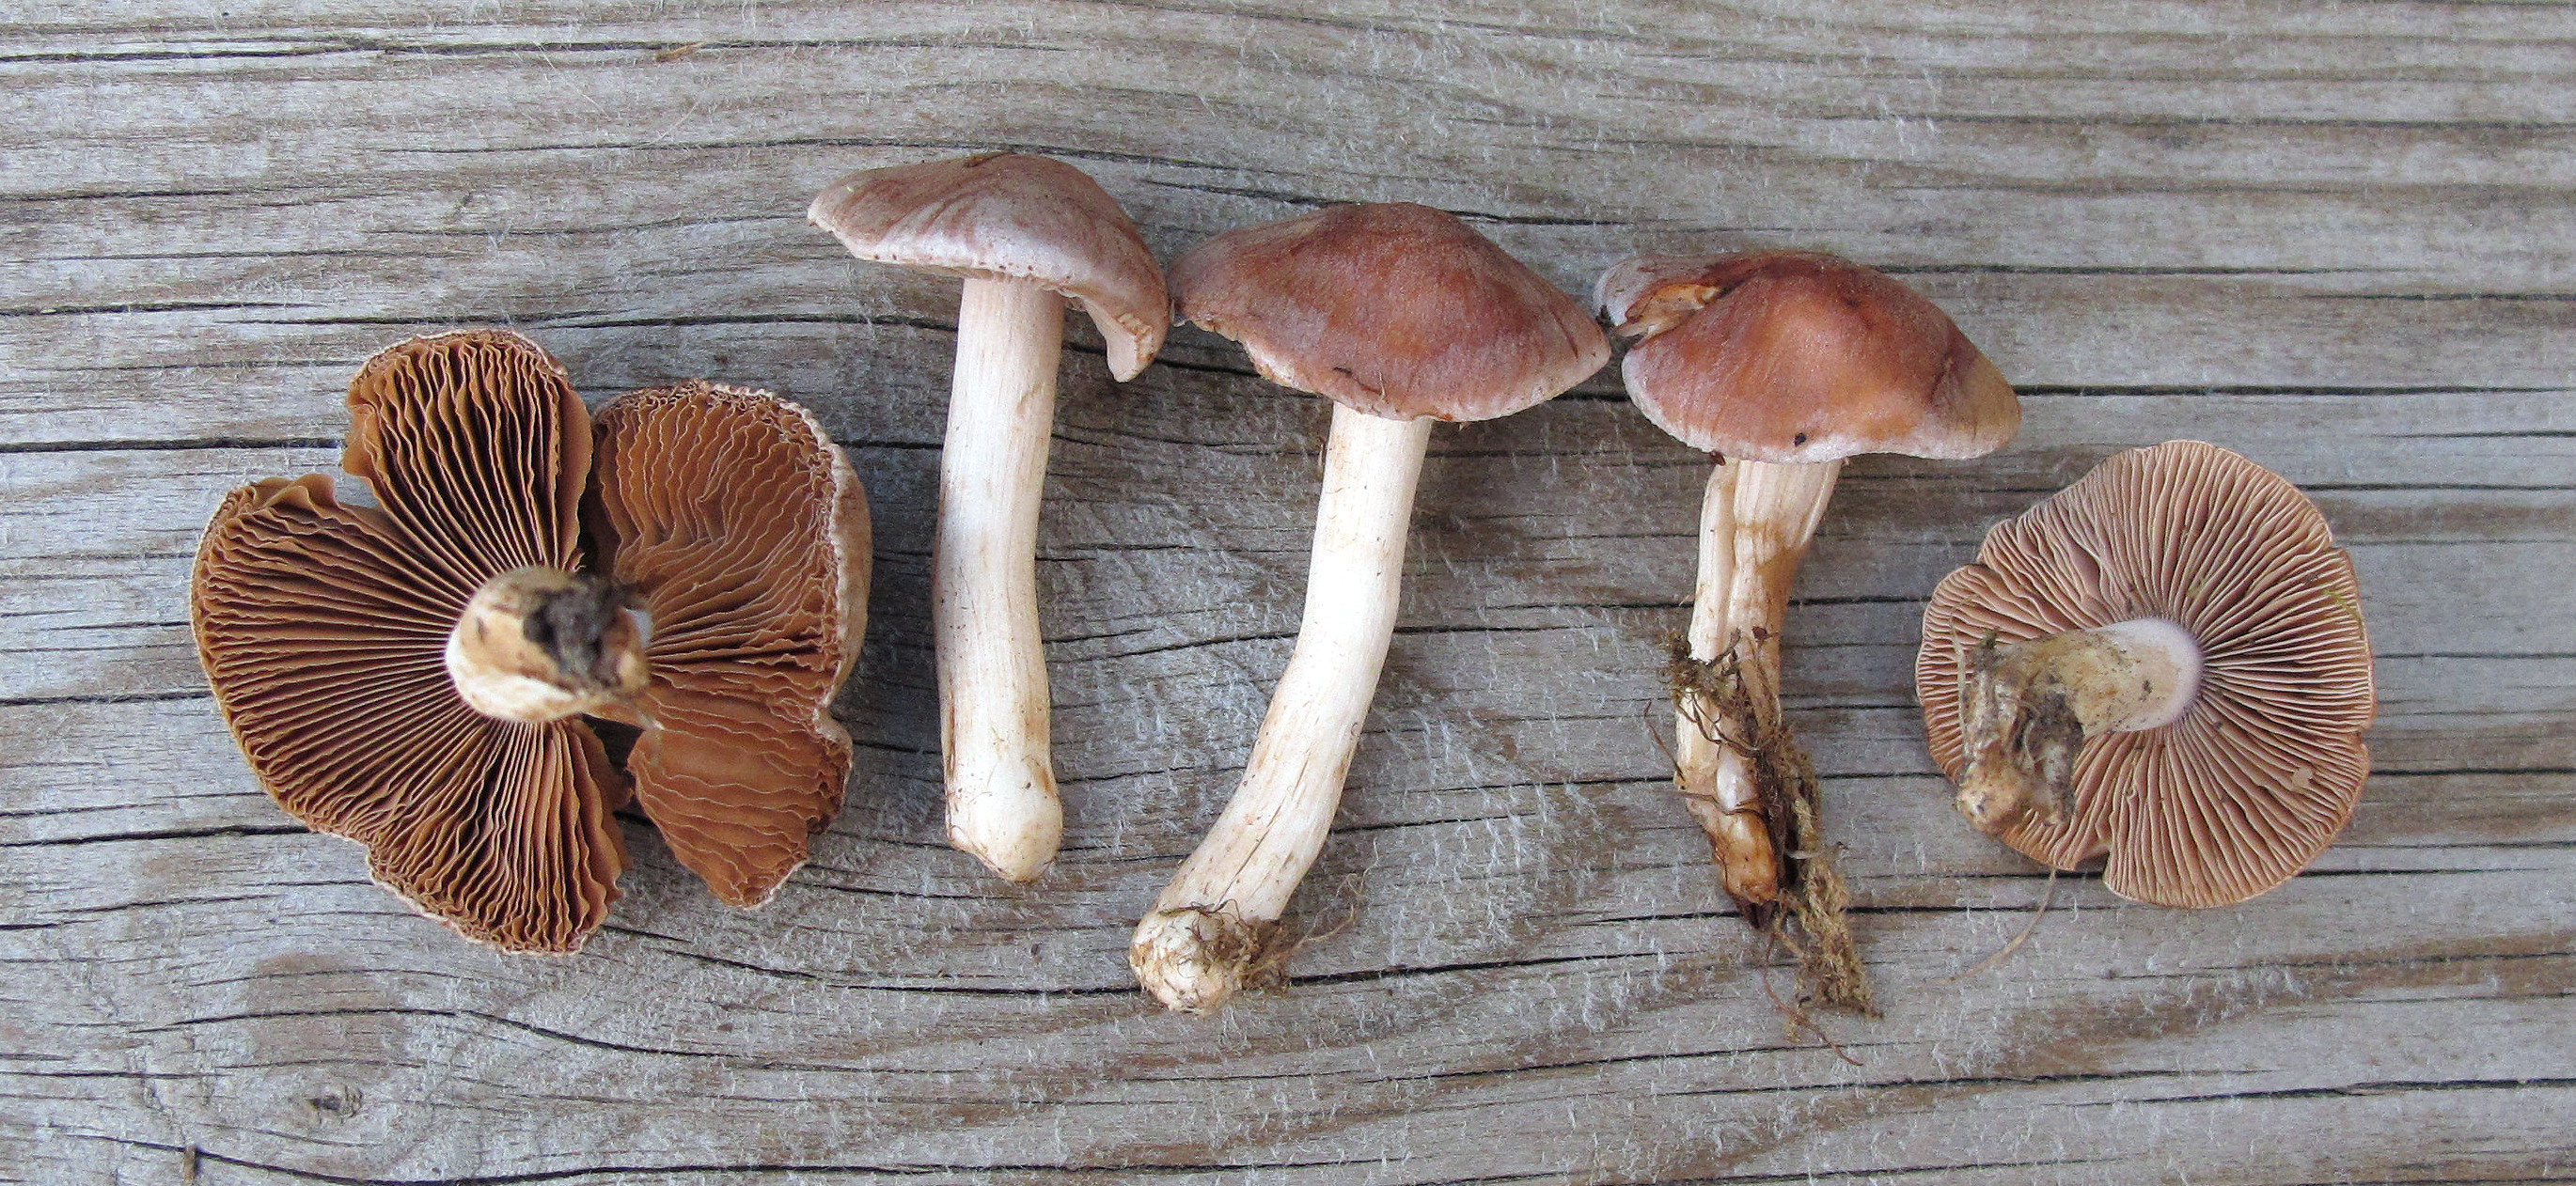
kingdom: Fungi
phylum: Basidiomycota
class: Agaricomycetes
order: Agaricales
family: Hymenogastraceae
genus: Hebeloma
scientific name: Hebeloma theobrominum
